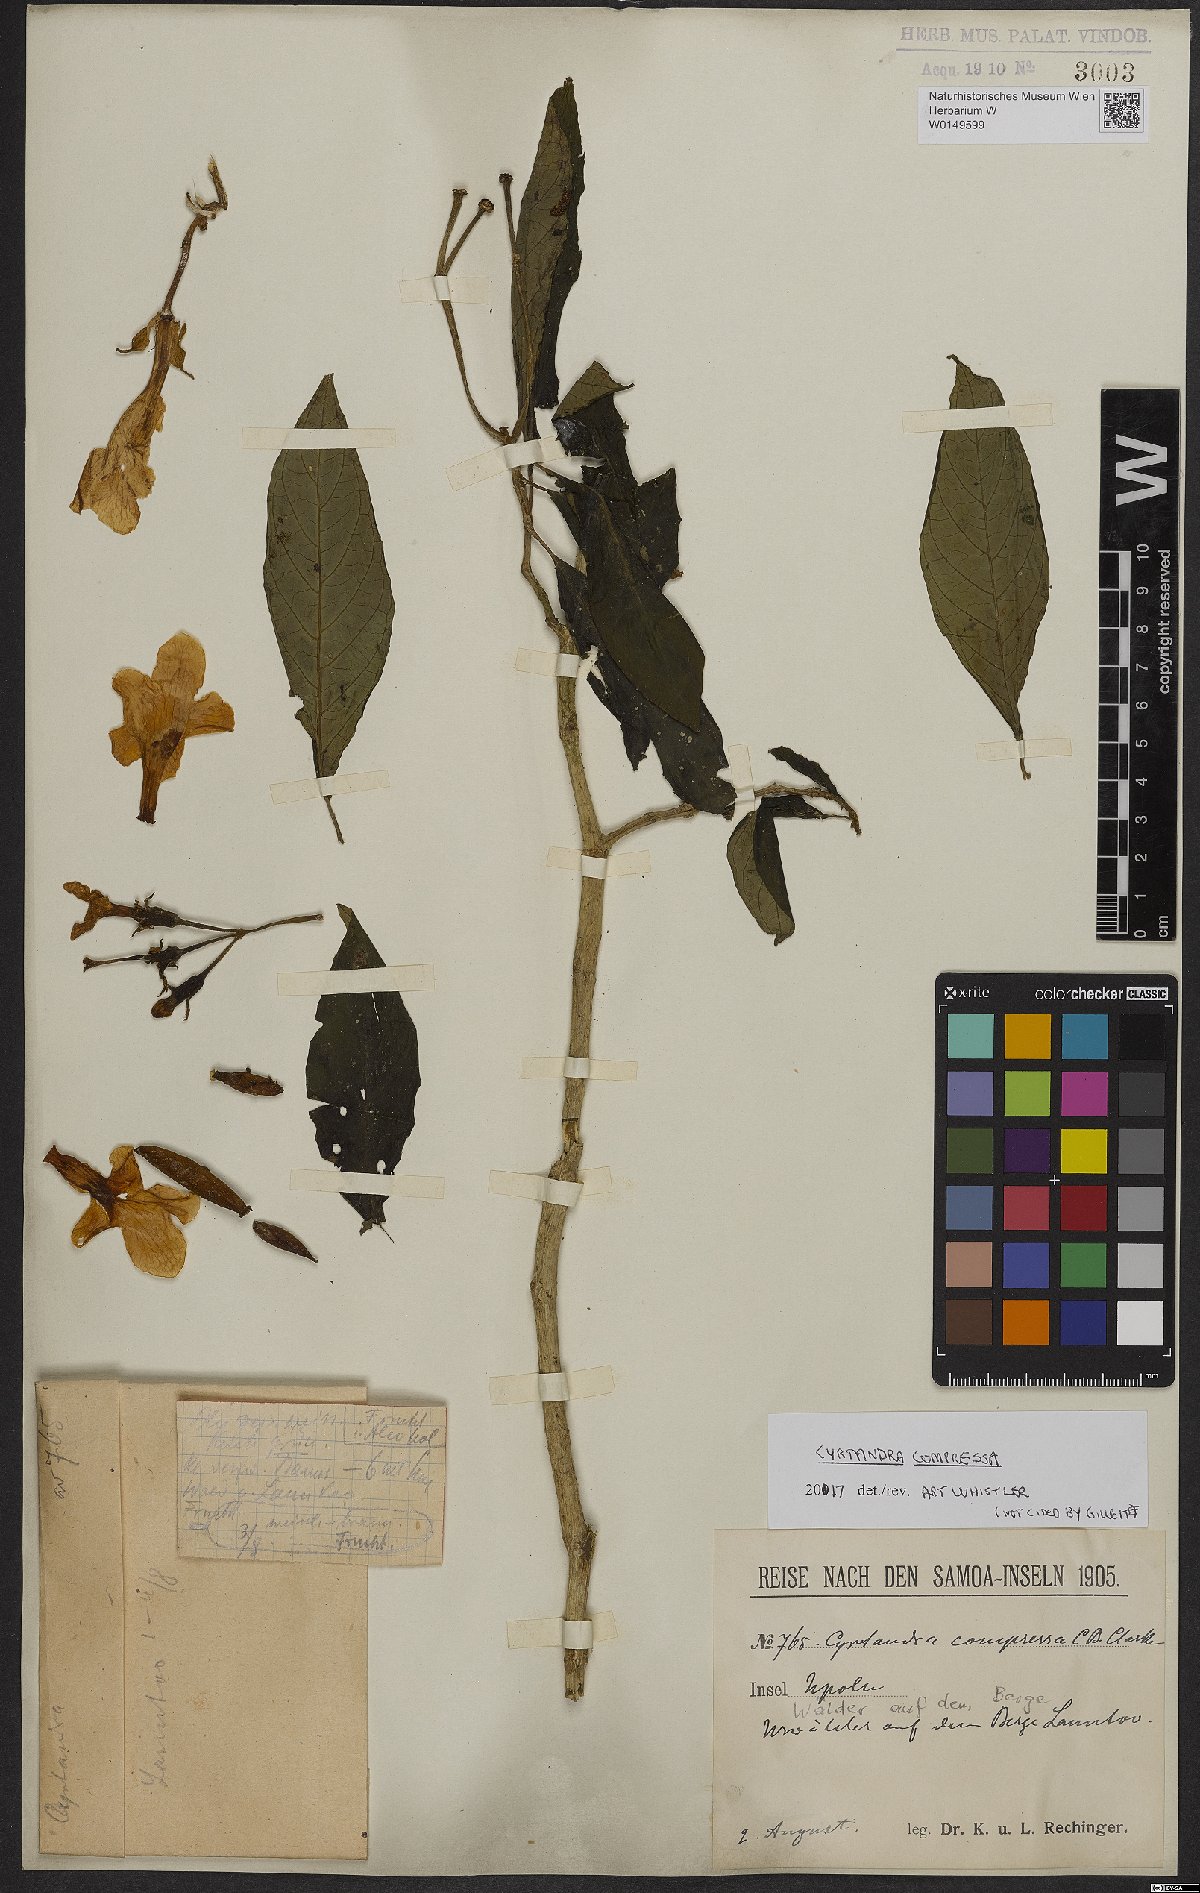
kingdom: Plantae
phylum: Tracheophyta
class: Magnoliopsida
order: Lamiales
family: Gesneriaceae
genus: Cyrtandra
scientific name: Cyrtandra compressa
